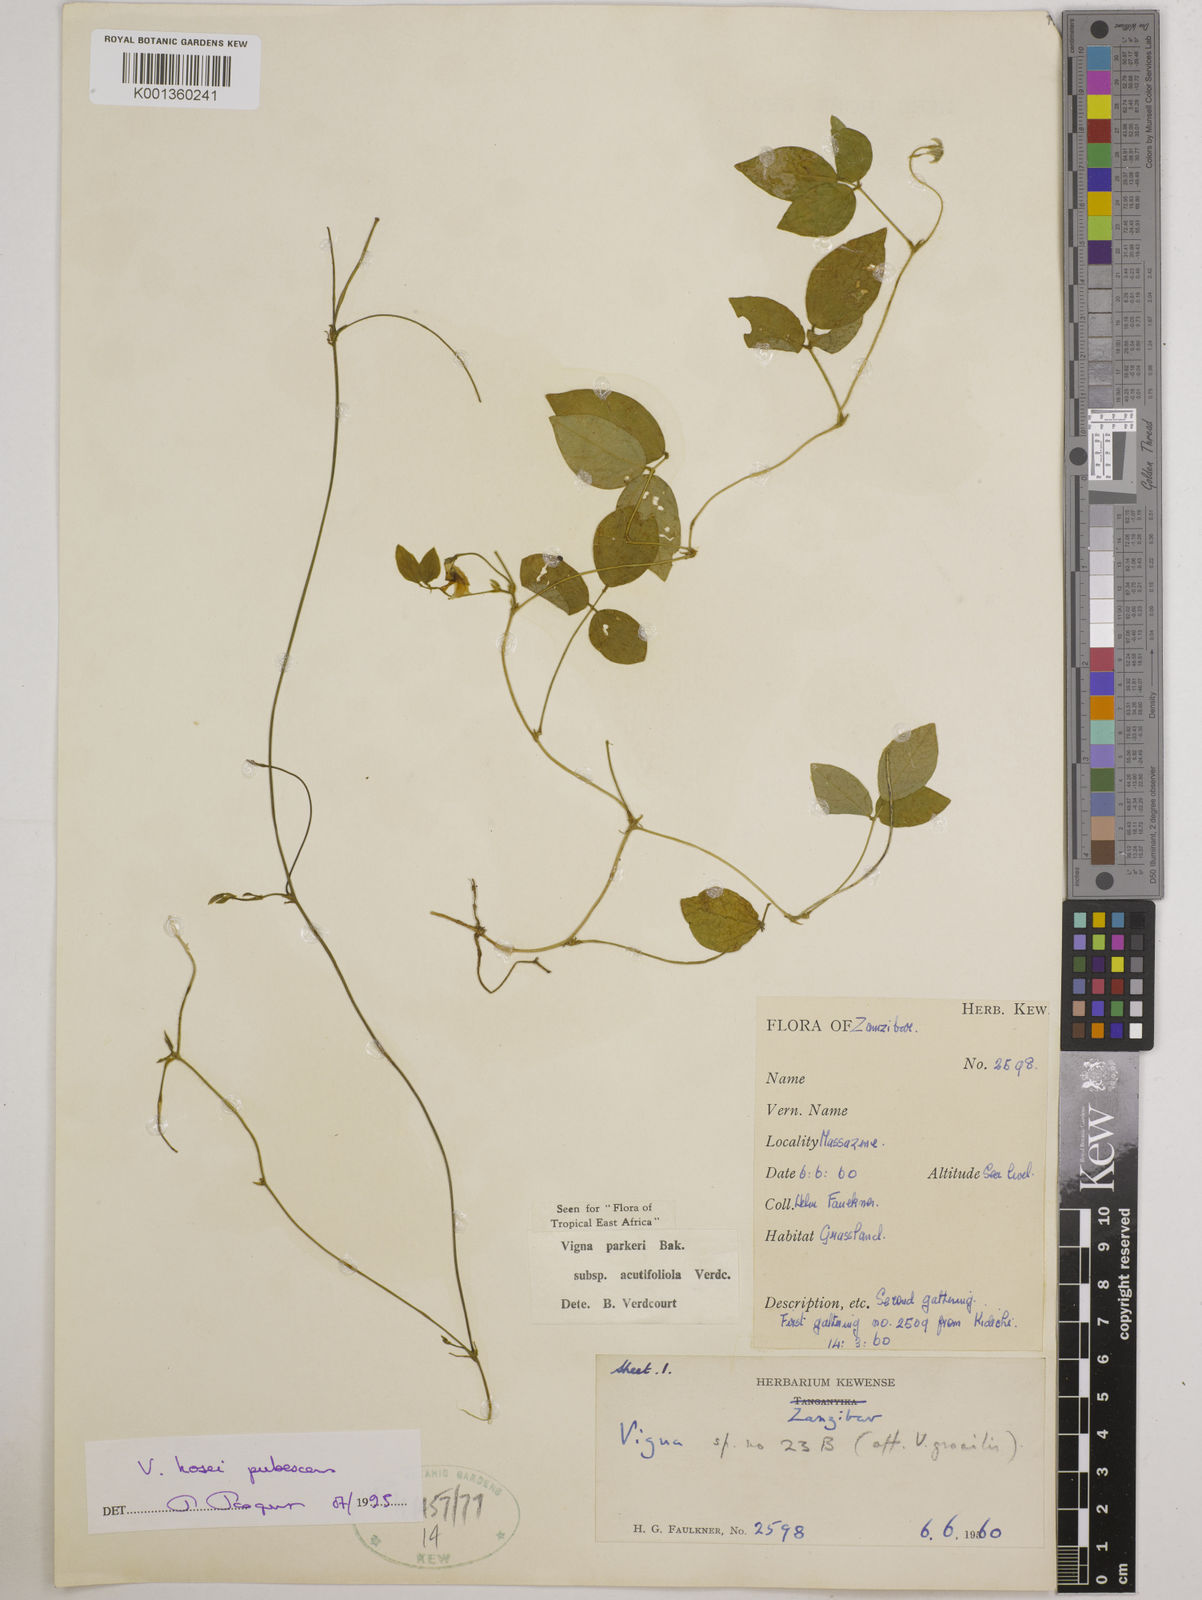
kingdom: Plantae
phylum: Tracheophyta
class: Magnoliopsida
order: Fabales
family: Fabaceae
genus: Vigna
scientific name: Vigna
